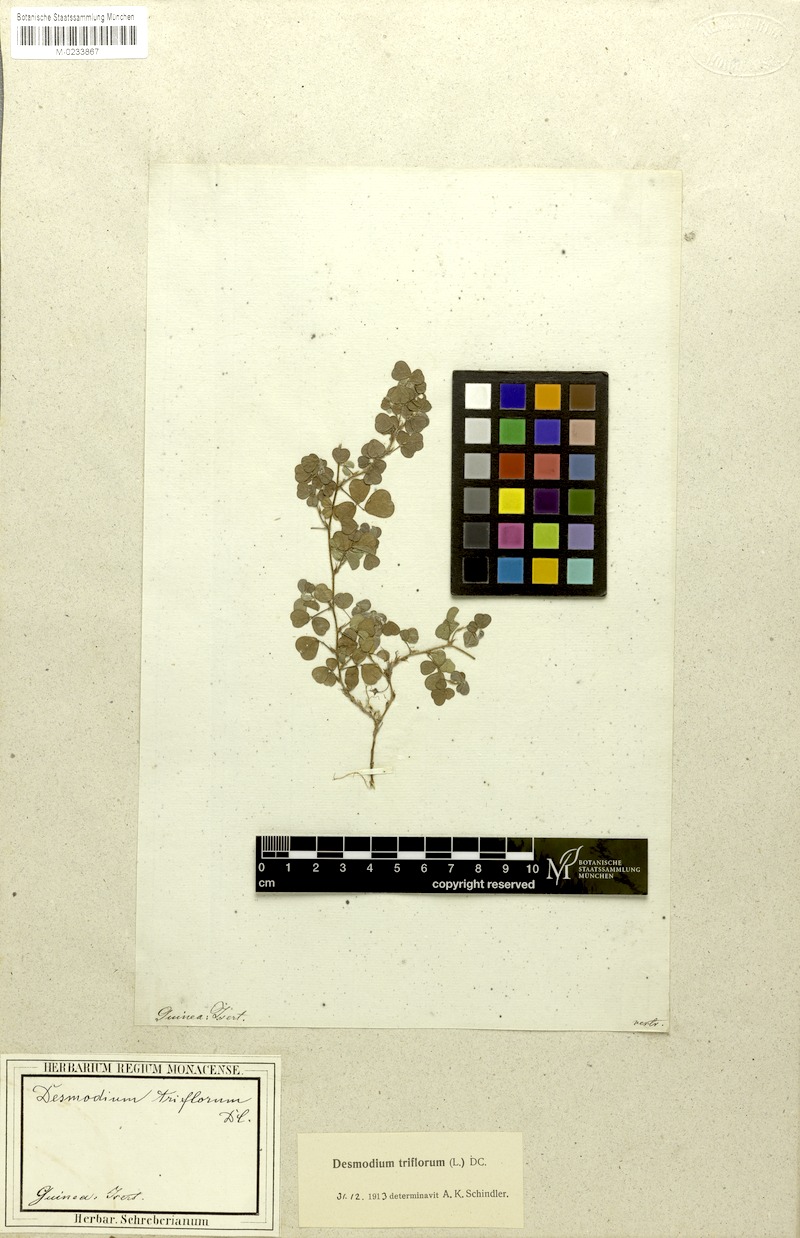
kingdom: Plantae
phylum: Tracheophyta
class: Magnoliopsida
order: Fabales
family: Fabaceae
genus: Grona
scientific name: Grona triflora
